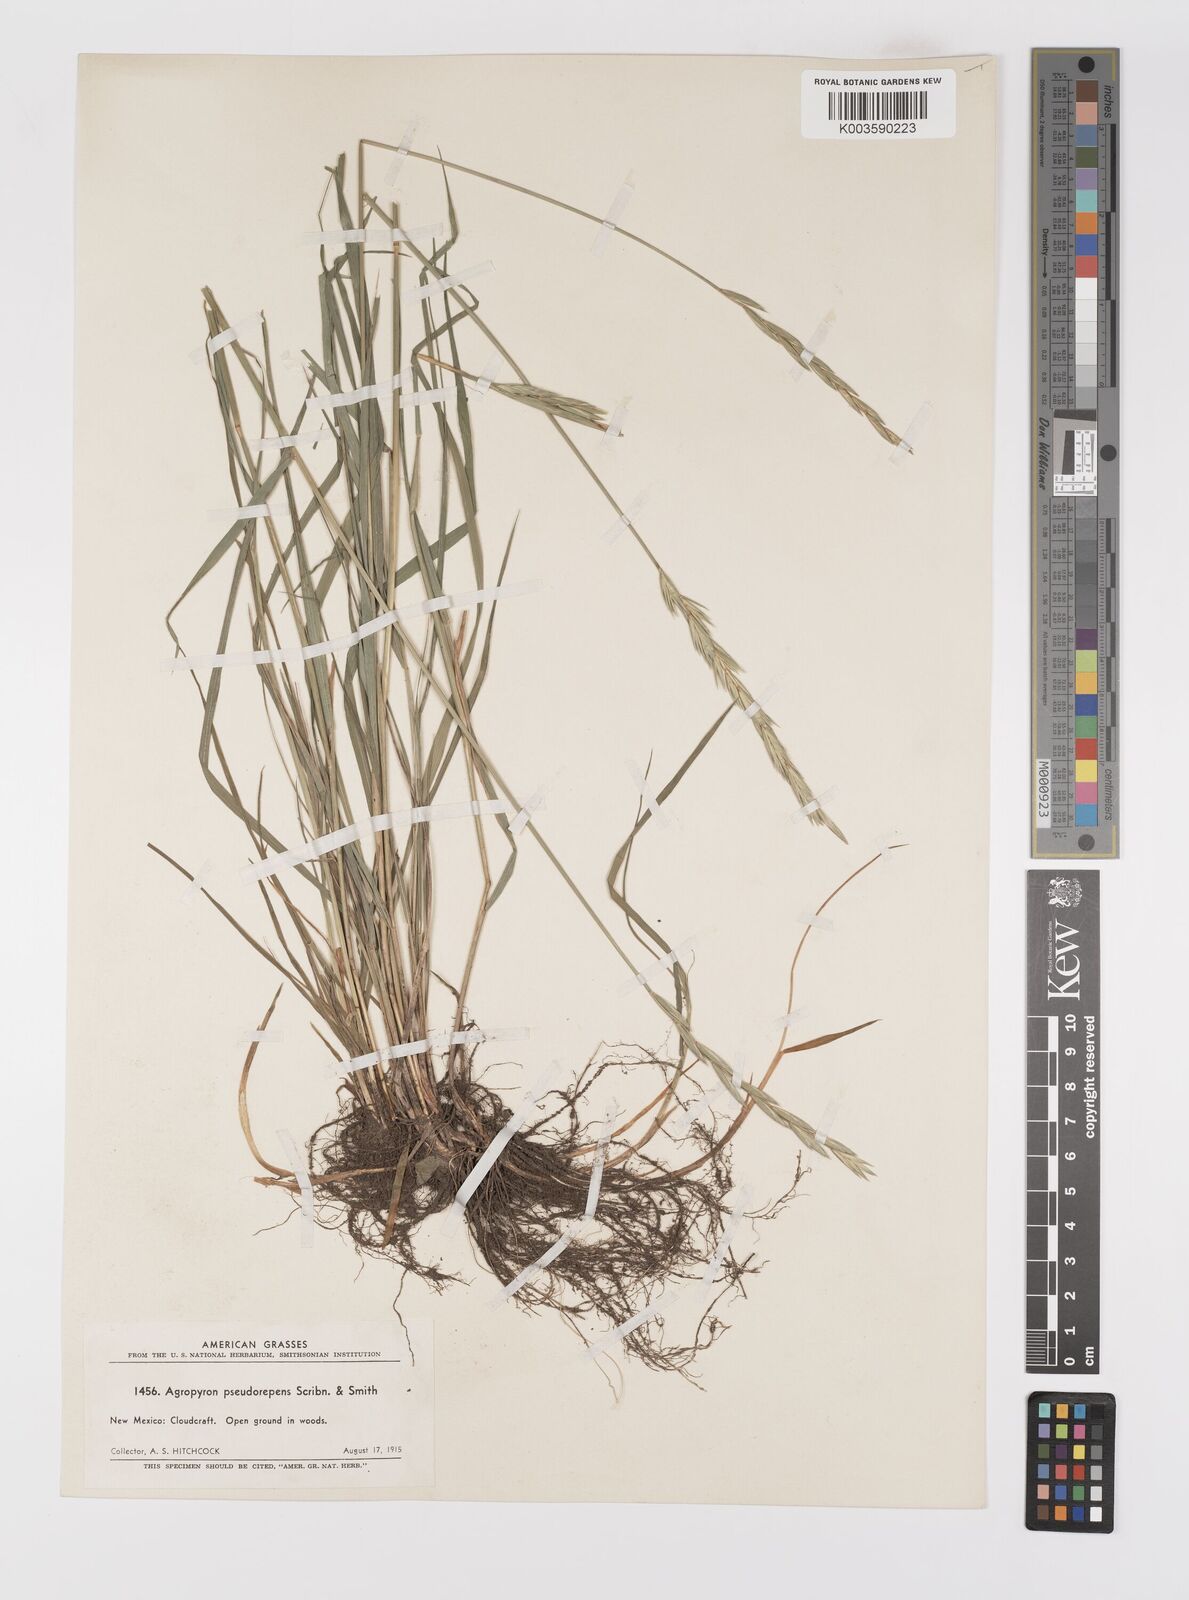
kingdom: Plantae
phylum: Tracheophyta
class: Liliopsida
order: Poales
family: Poaceae
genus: Elymus
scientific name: Elymus violaceus
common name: Arctic wheatgrass
